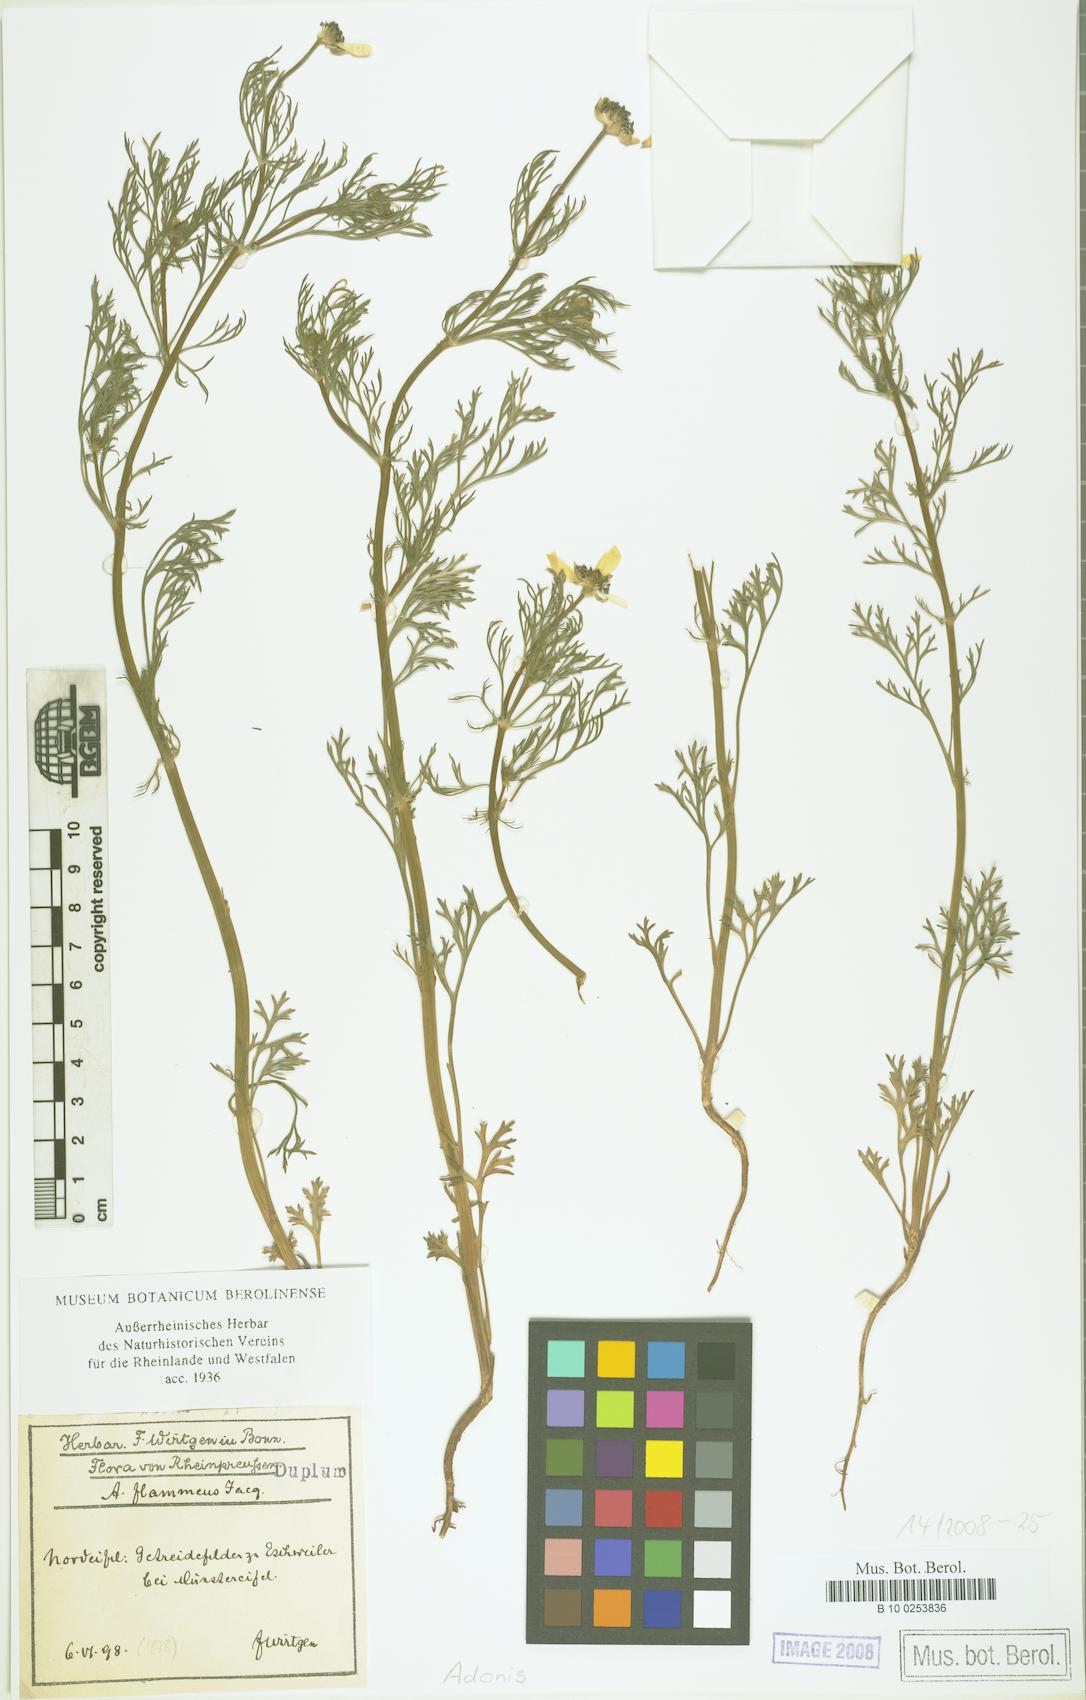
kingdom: Plantae
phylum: Tracheophyta
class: Magnoliopsida
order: Ranunculales
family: Ranunculaceae
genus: Adonis
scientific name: Adonis
